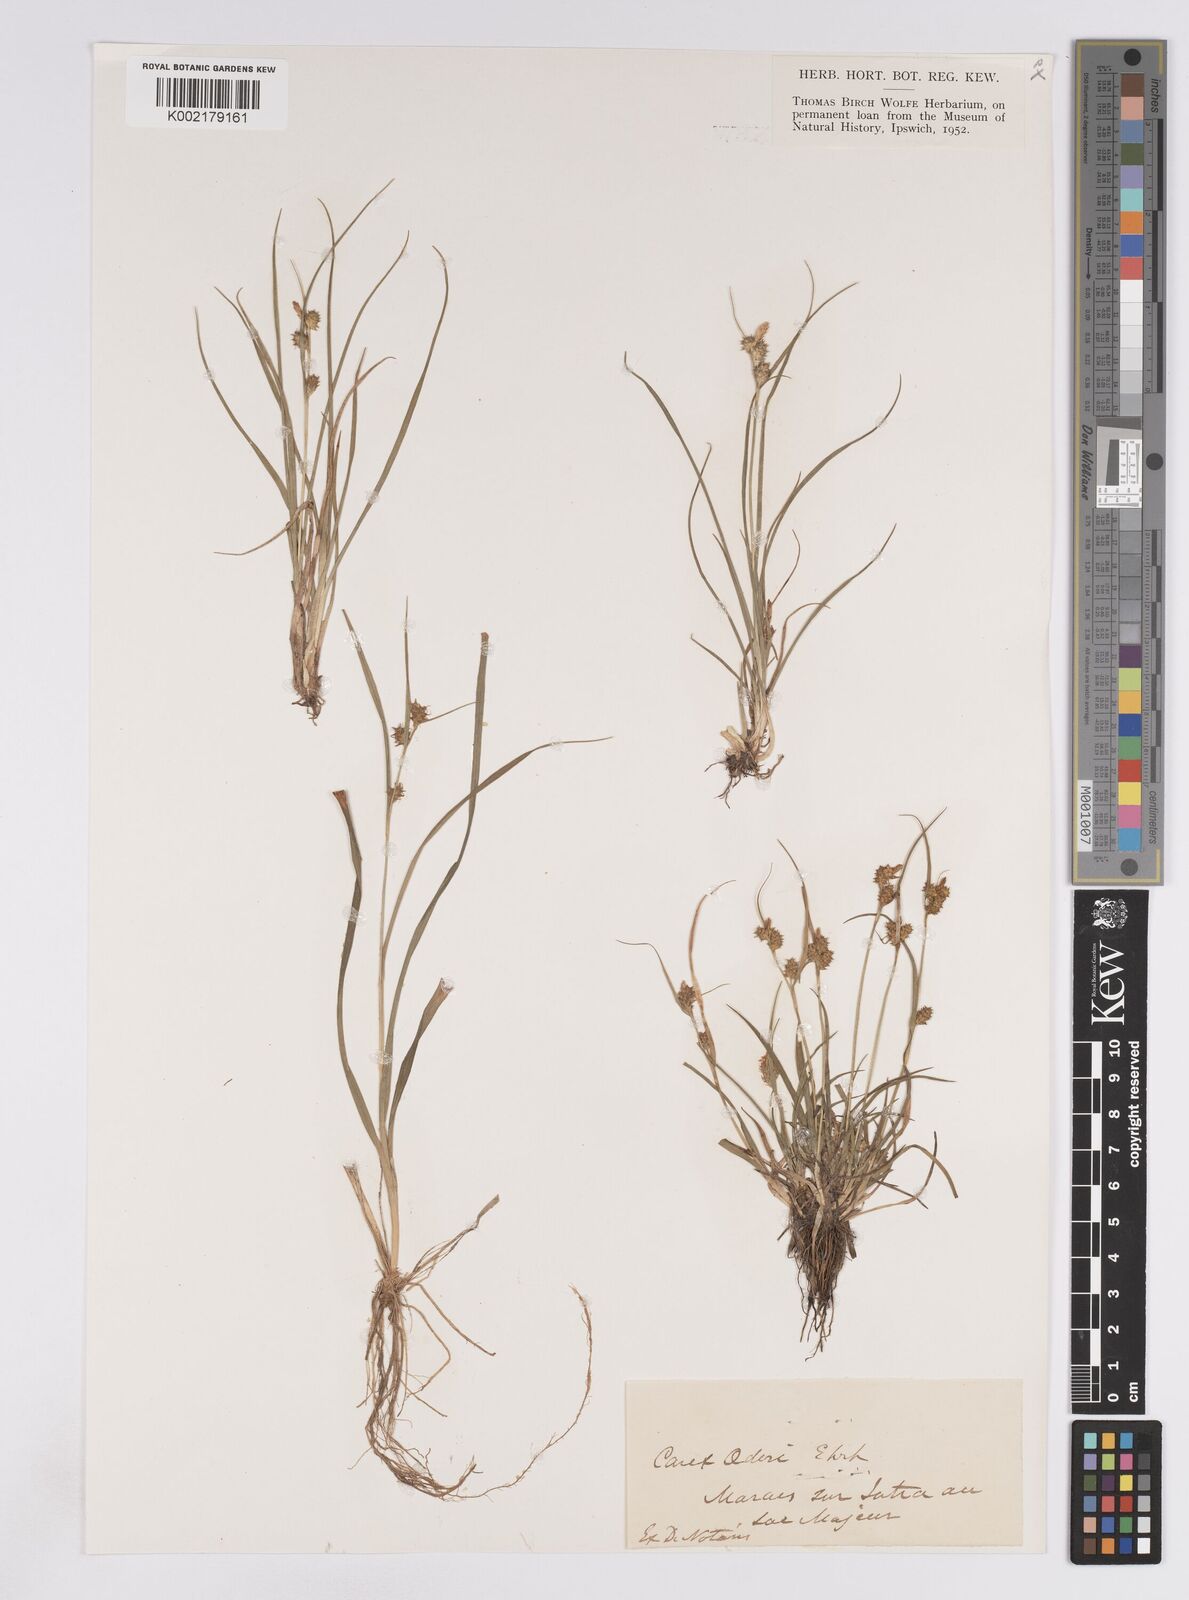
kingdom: Plantae
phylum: Tracheophyta
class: Liliopsida
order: Poales
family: Cyperaceae
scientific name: Cyperaceae
